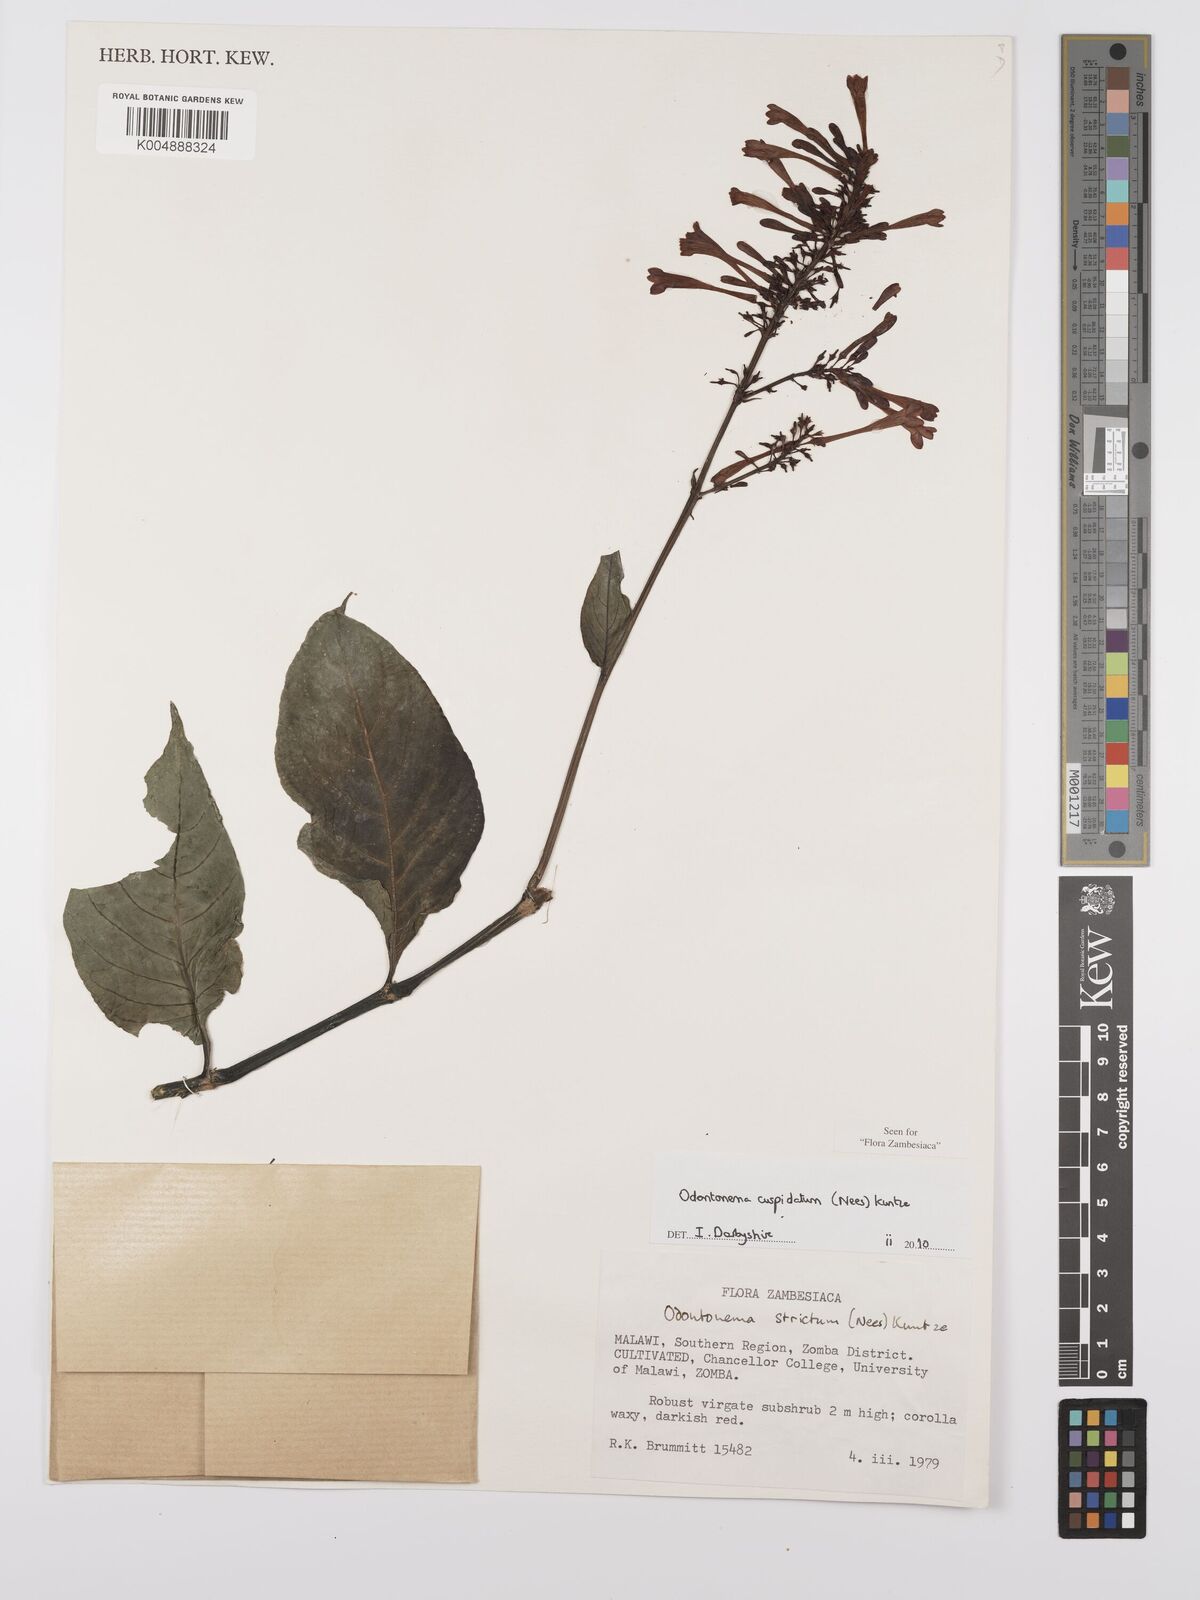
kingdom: Plantae
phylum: Tracheophyta
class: Magnoliopsida
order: Lamiales
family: Acanthaceae
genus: Odontonema
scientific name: Odontonema cuspidatum
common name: Mottled toothedthread
